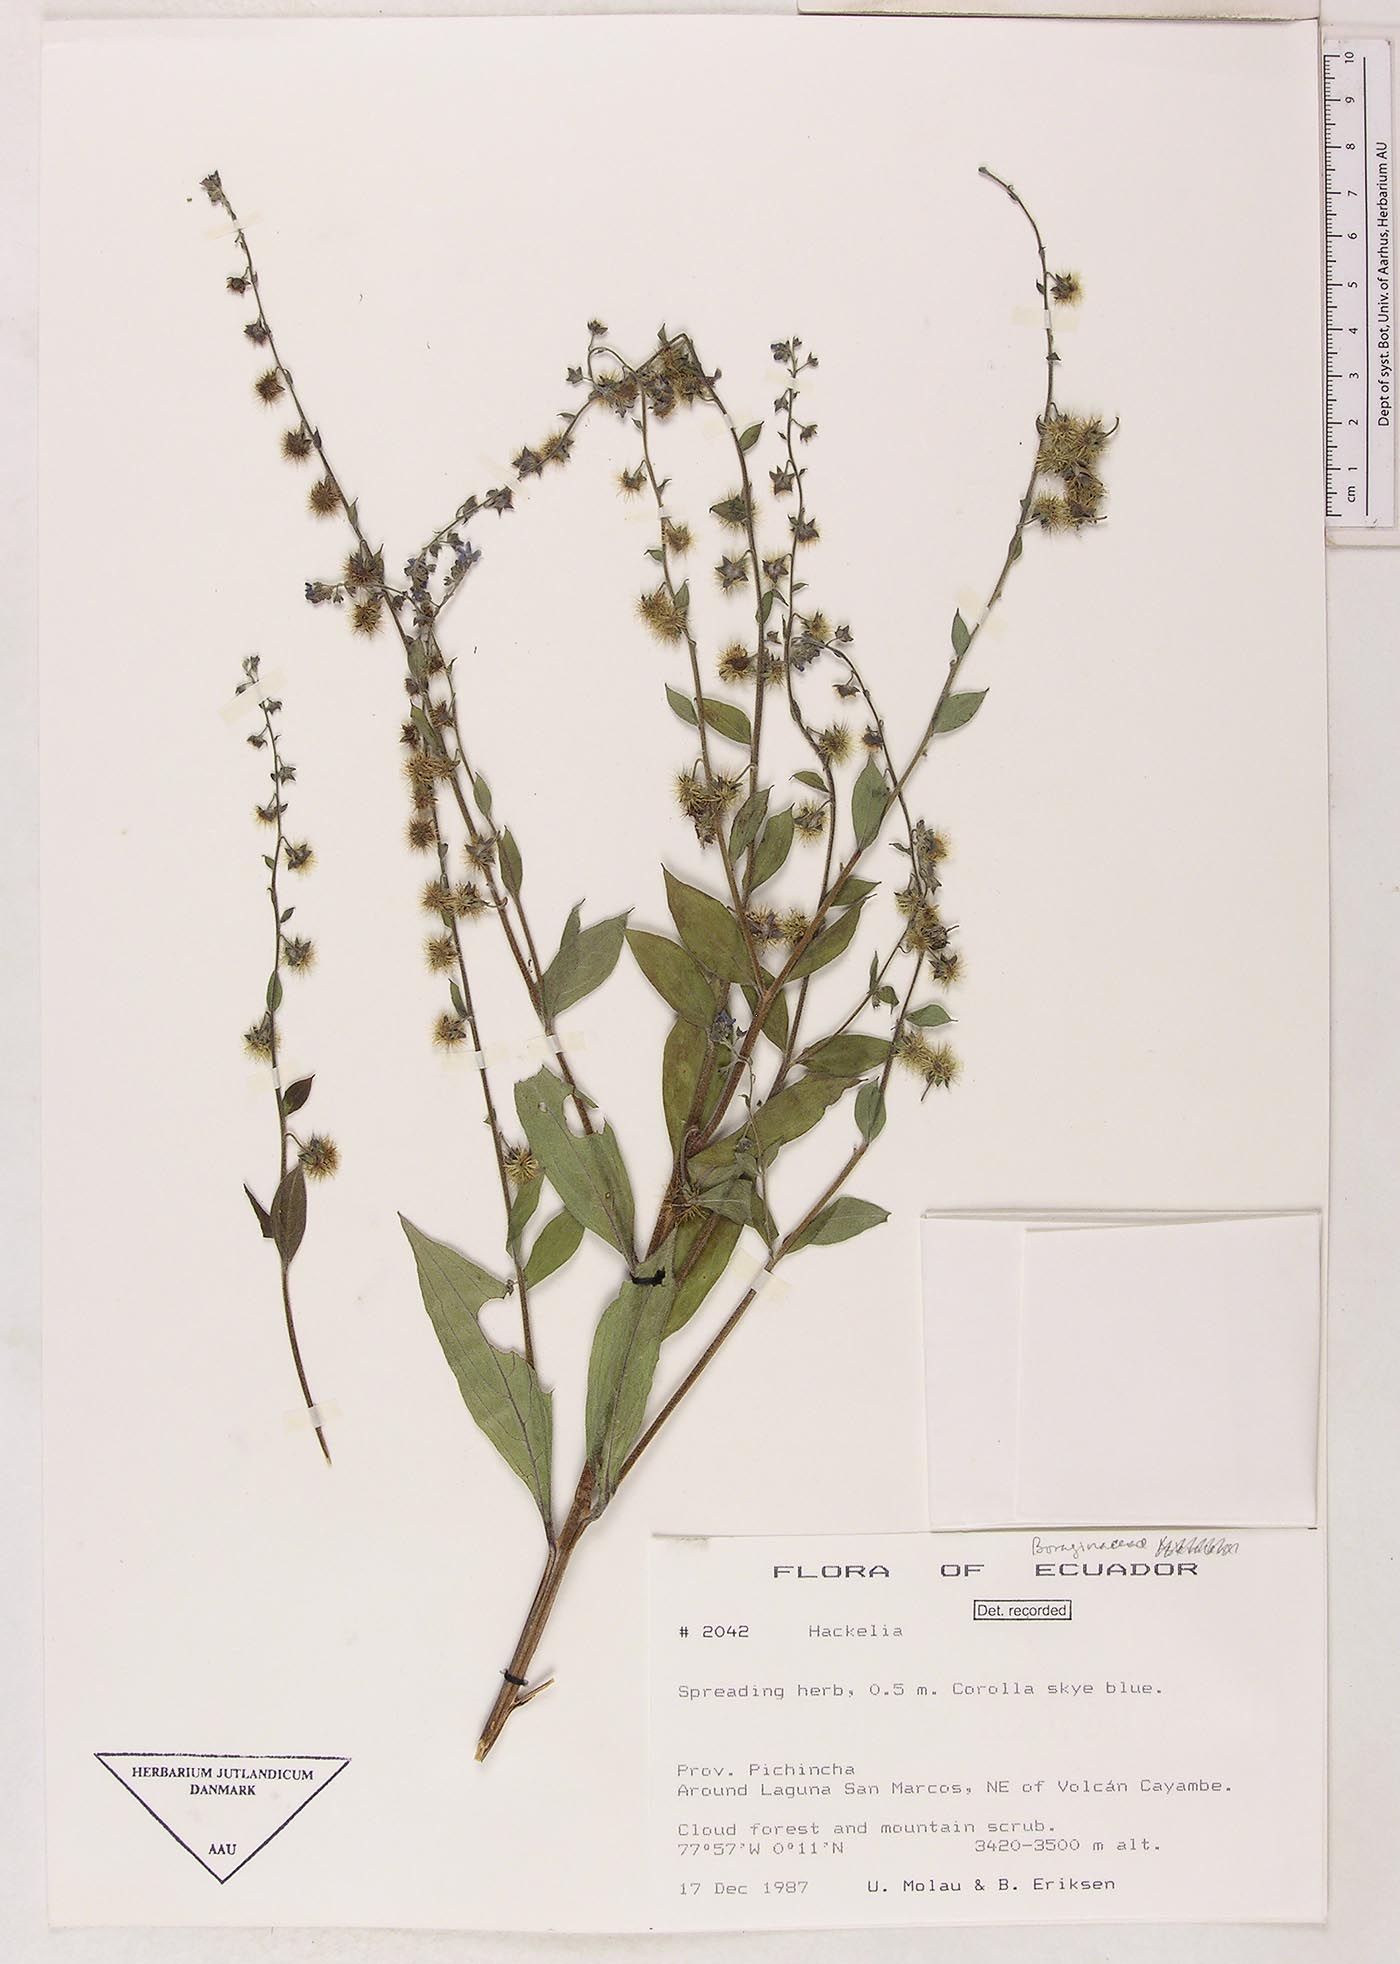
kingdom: Plantae
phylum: Tracheophyta
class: Magnoliopsida
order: Boraginales
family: Boraginaceae
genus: Hackelia
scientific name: Hackelia revoluta
